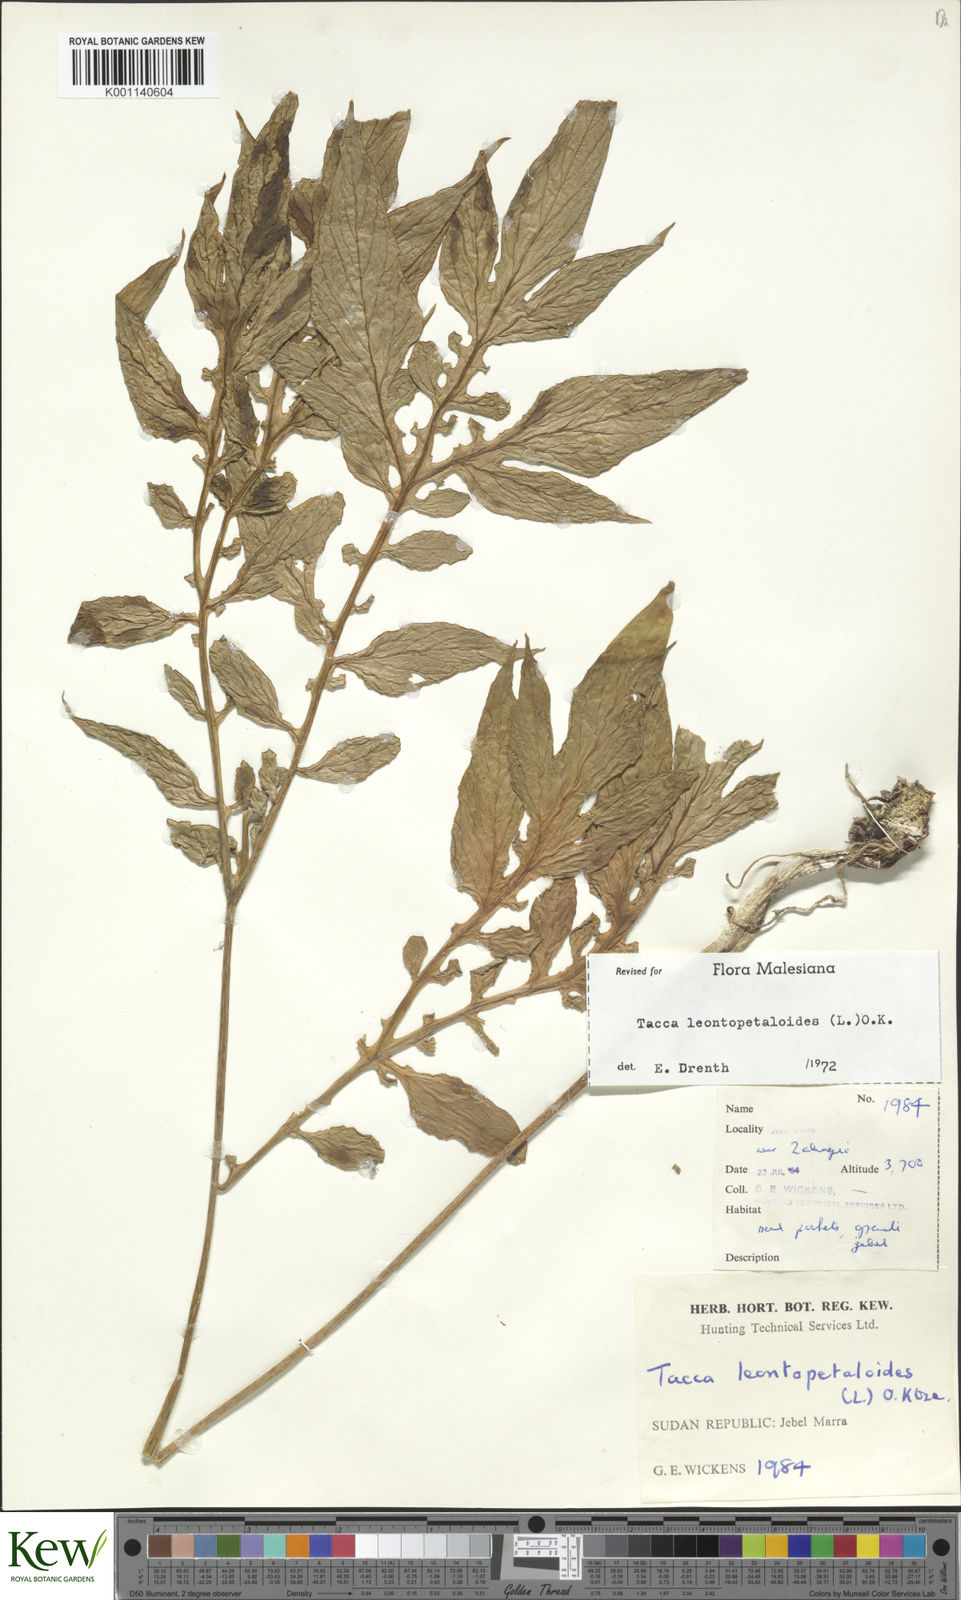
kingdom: Plantae
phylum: Tracheophyta
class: Liliopsida
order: Dioscoreales
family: Dioscoreaceae
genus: Tacca
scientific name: Tacca leontopetaloides
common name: Arrowroot
